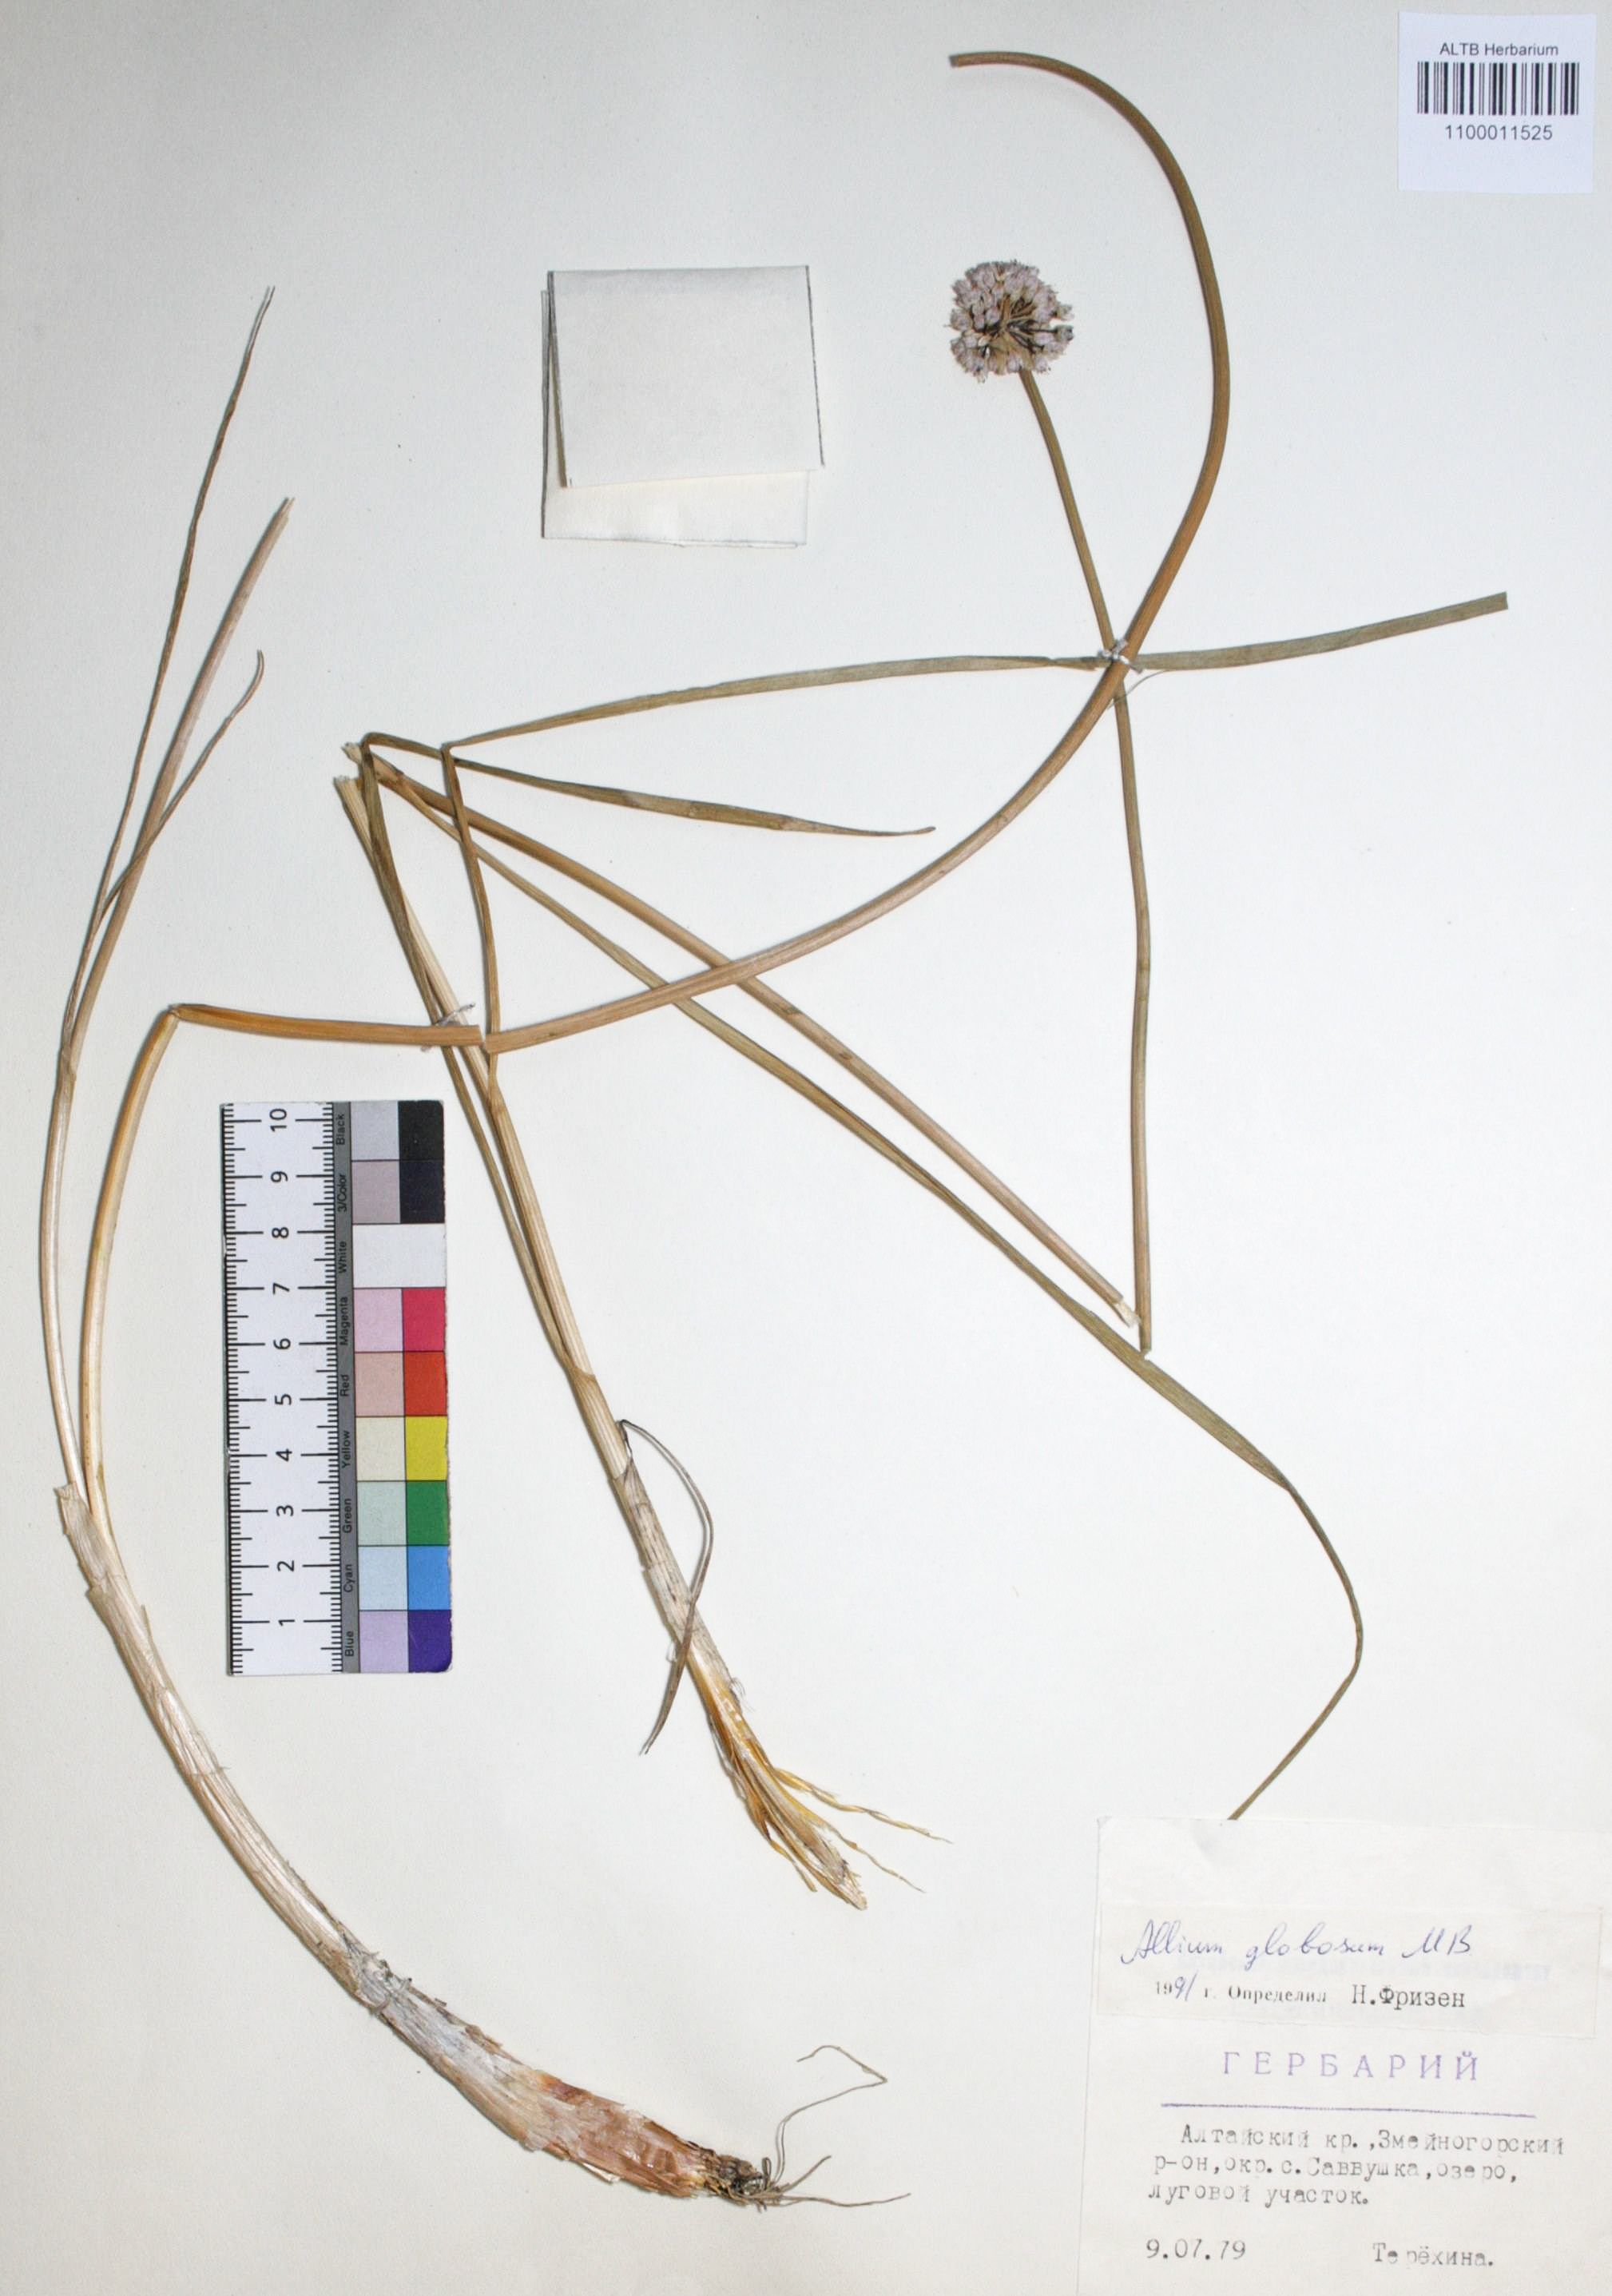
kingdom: Plantae
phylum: Tracheophyta
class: Liliopsida
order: Asparagales
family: Amaryllidaceae
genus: Allium
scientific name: Allium saxatile
